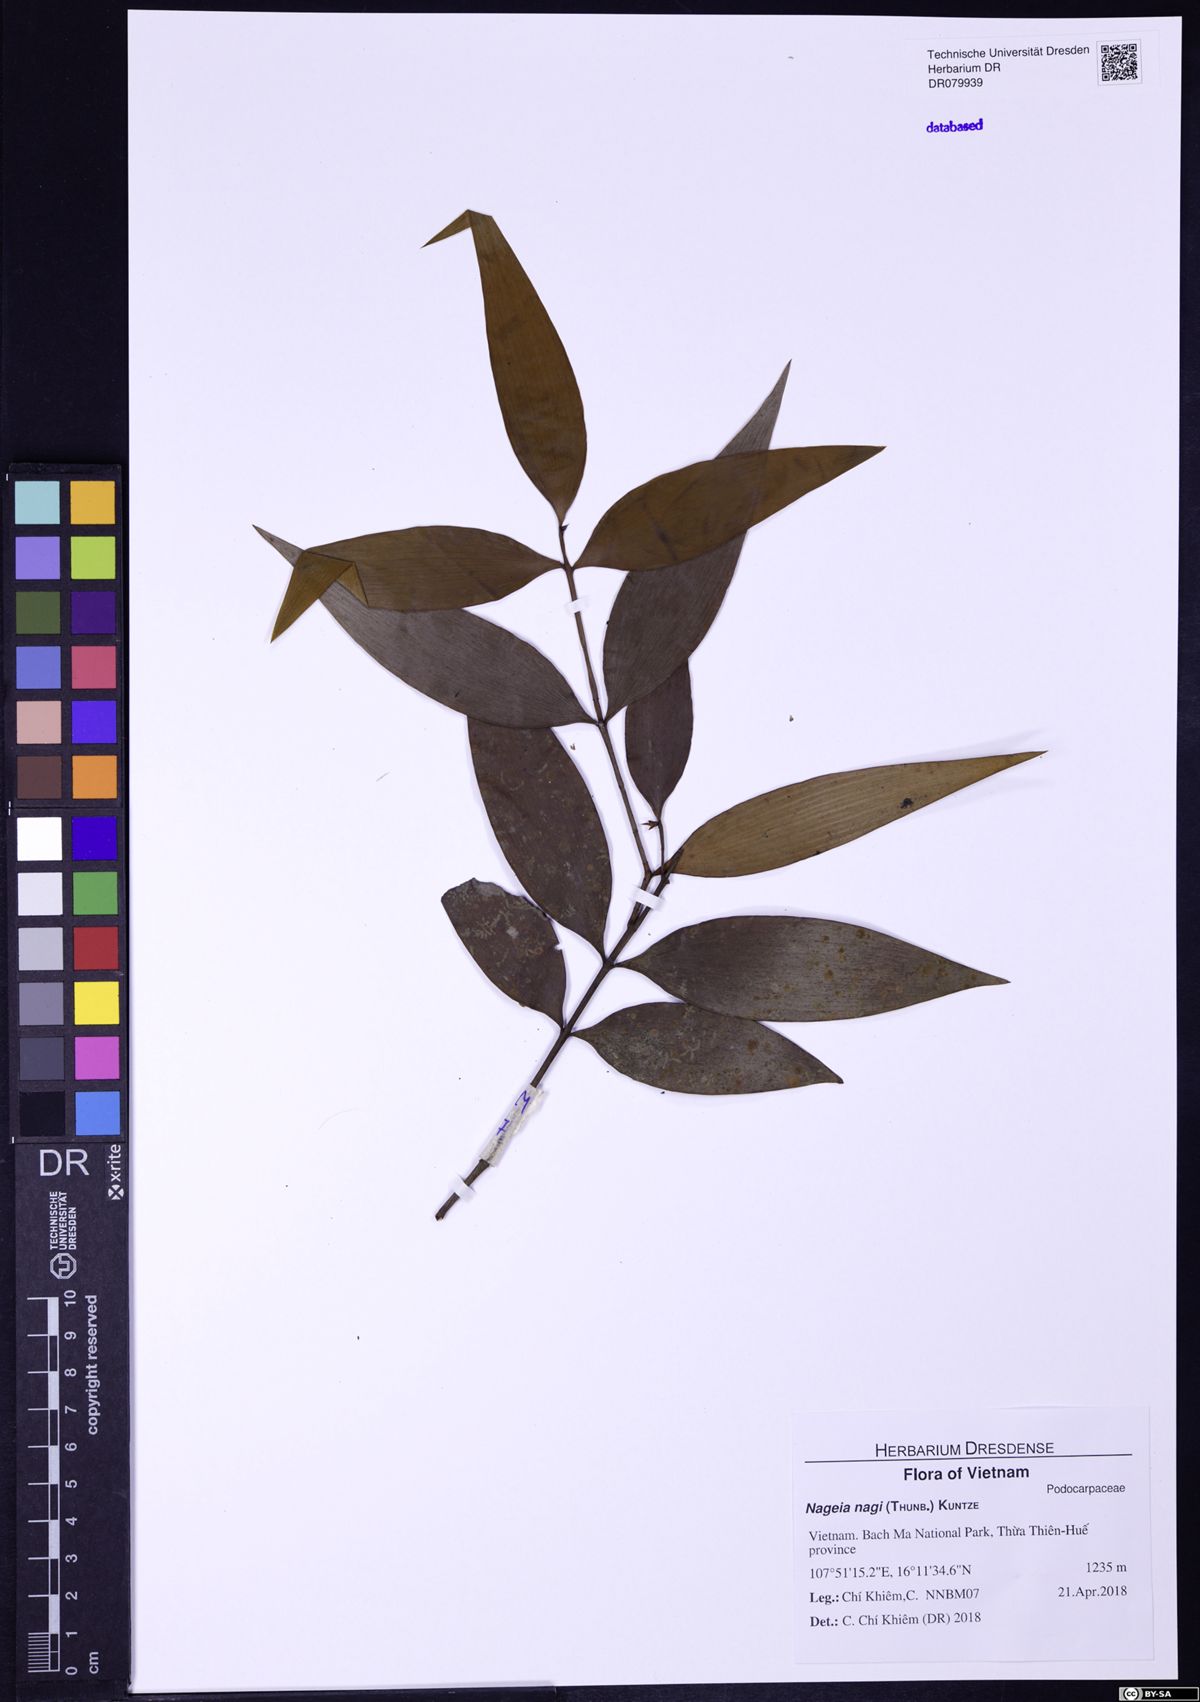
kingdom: Plantae
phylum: Tracheophyta
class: Pinopsida
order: Pinales
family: Podocarpaceae
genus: Nageia
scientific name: Nageia nagi
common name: Kaphal
